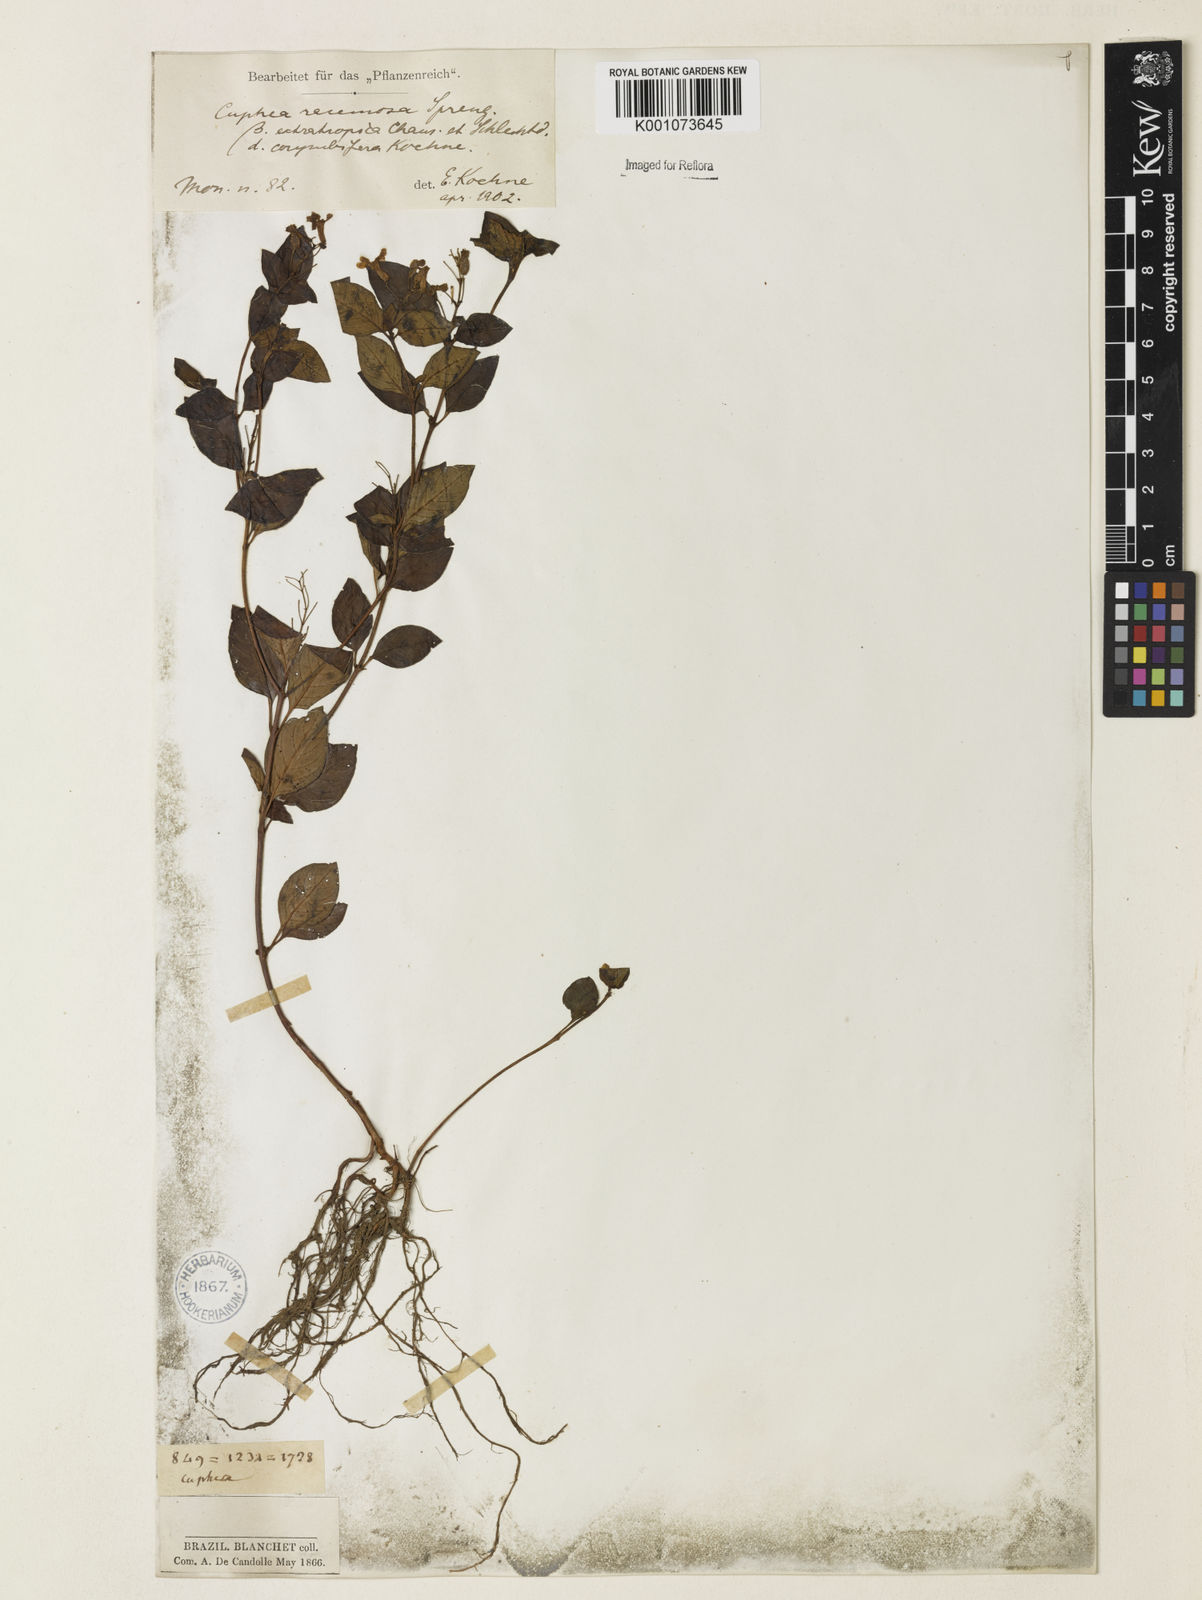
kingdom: Plantae
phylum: Tracheophyta
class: Magnoliopsida
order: Myrtales
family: Lythraceae
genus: Cuphea
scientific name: Cuphea racemosa
